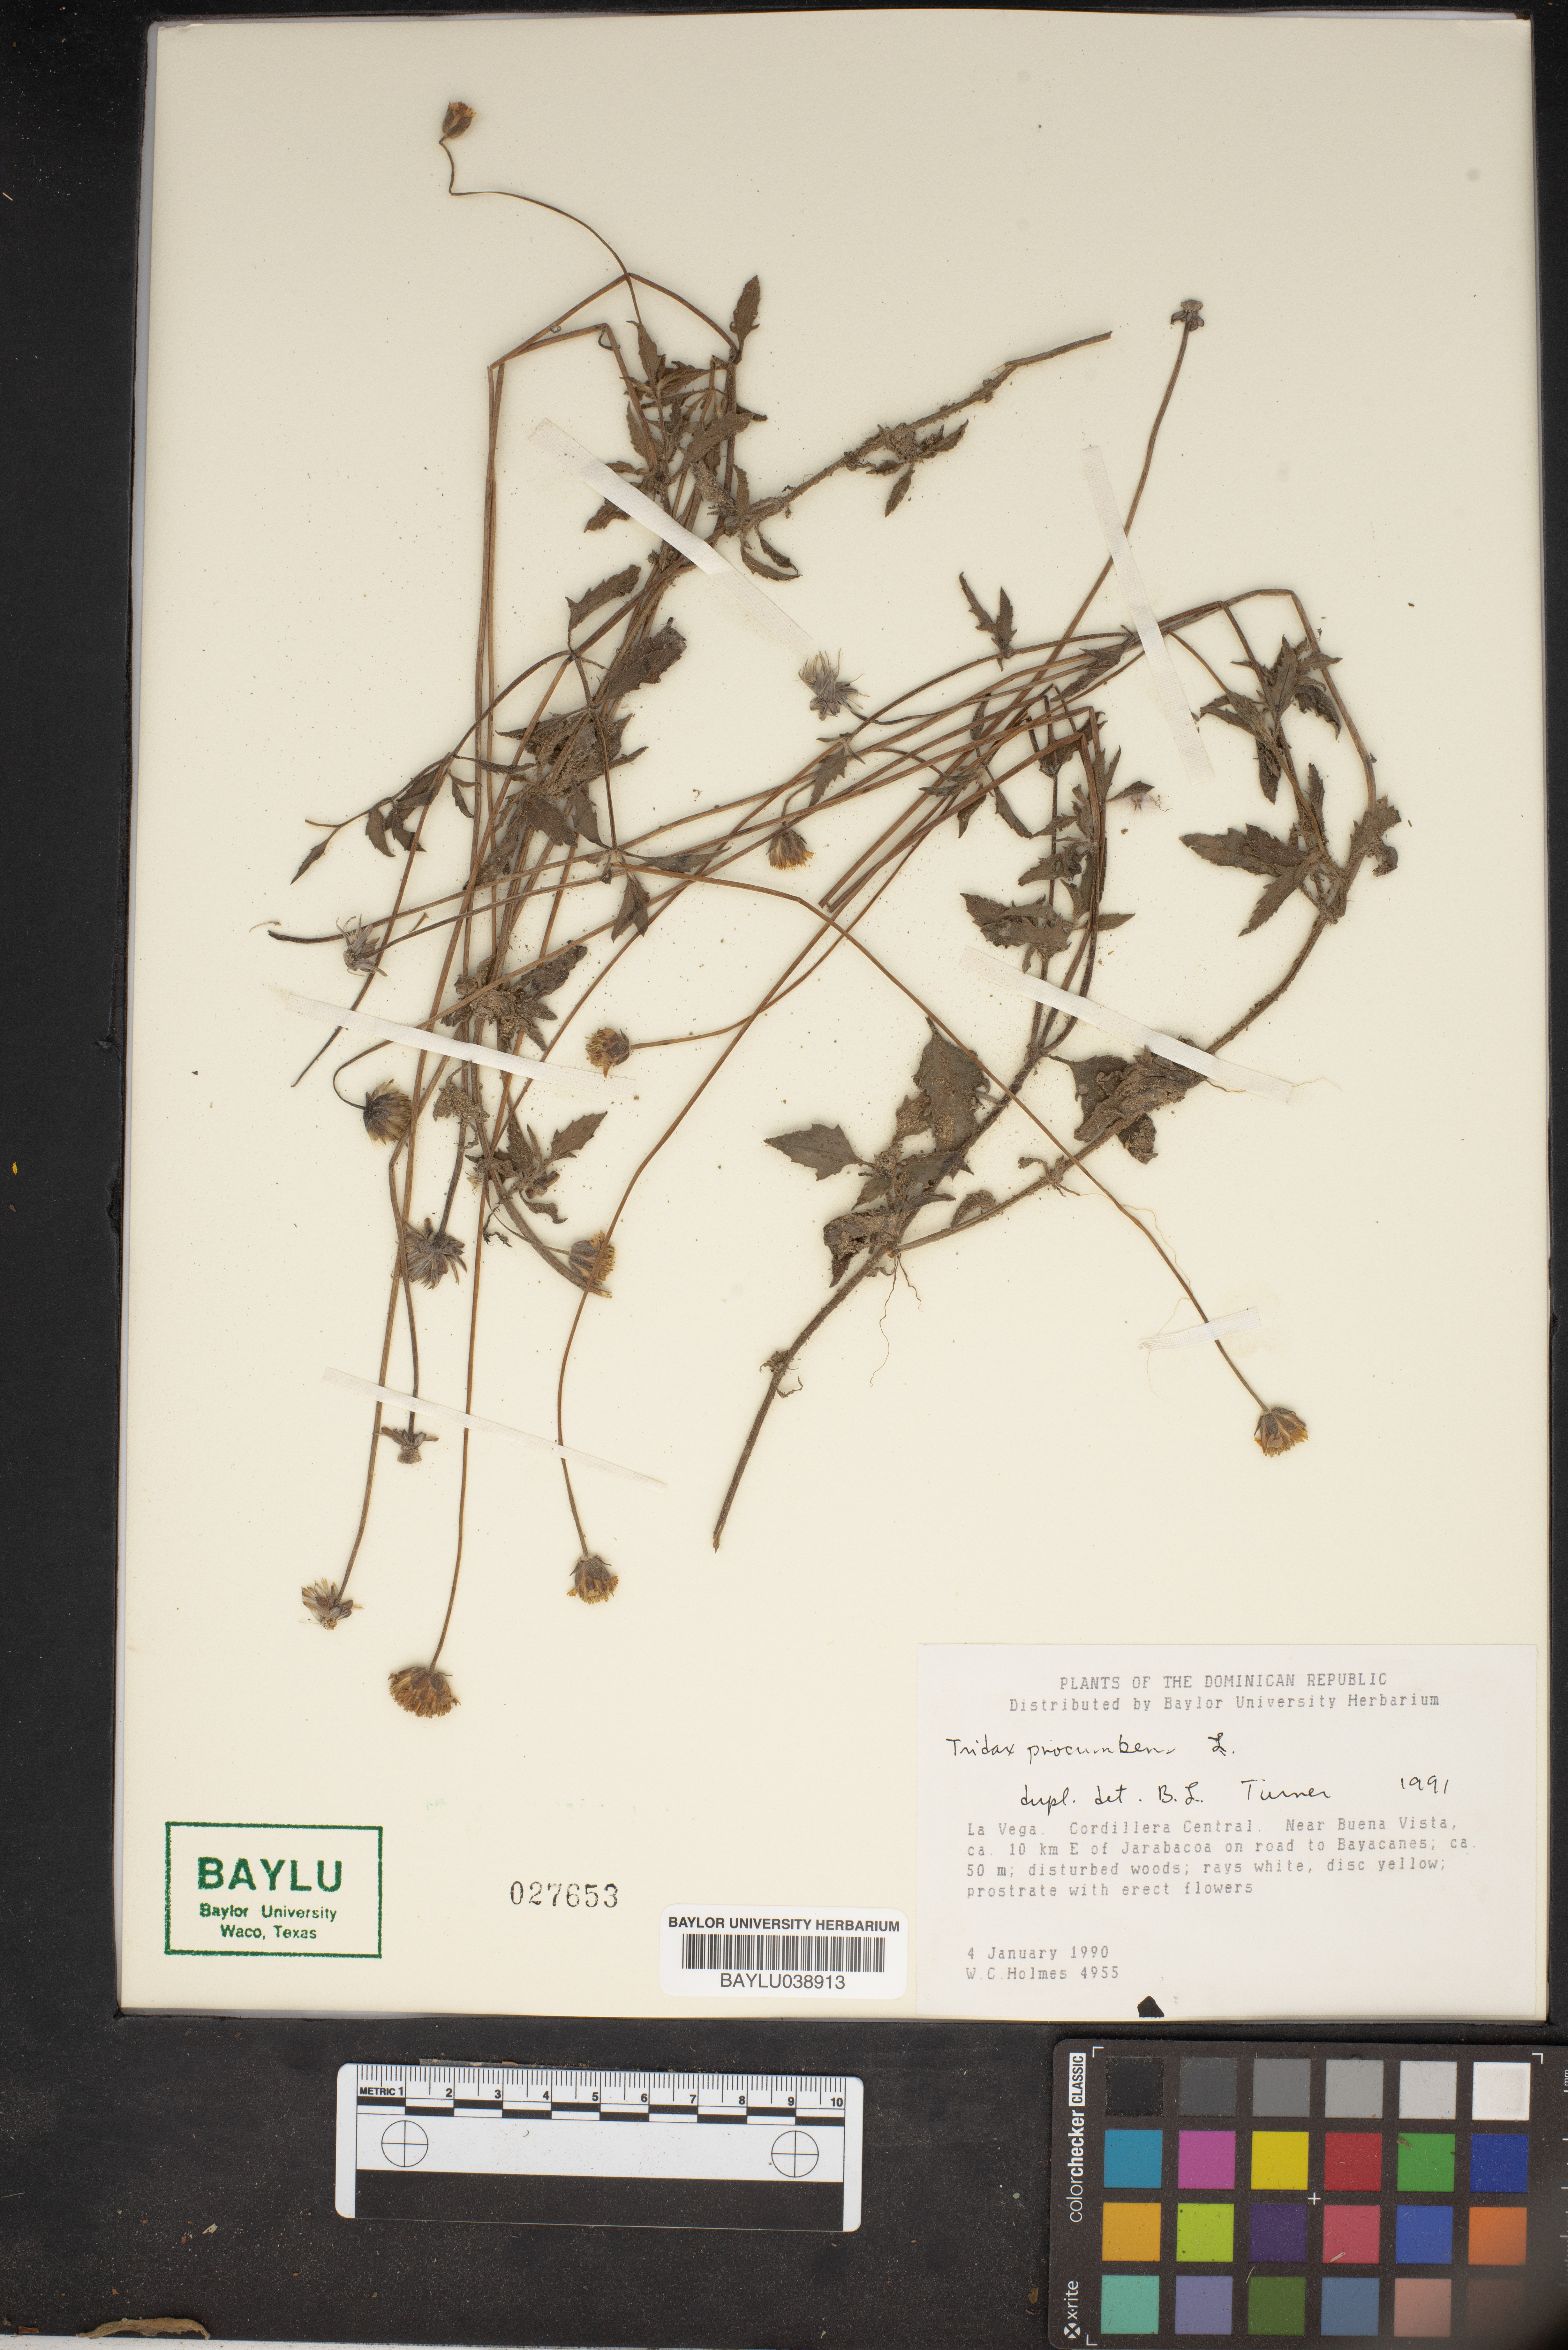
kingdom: Plantae
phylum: Tracheophyta
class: Magnoliopsida
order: Asterales
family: Asteraceae
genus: Tridax
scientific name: Tridax procumbens
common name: Coatbuttons
